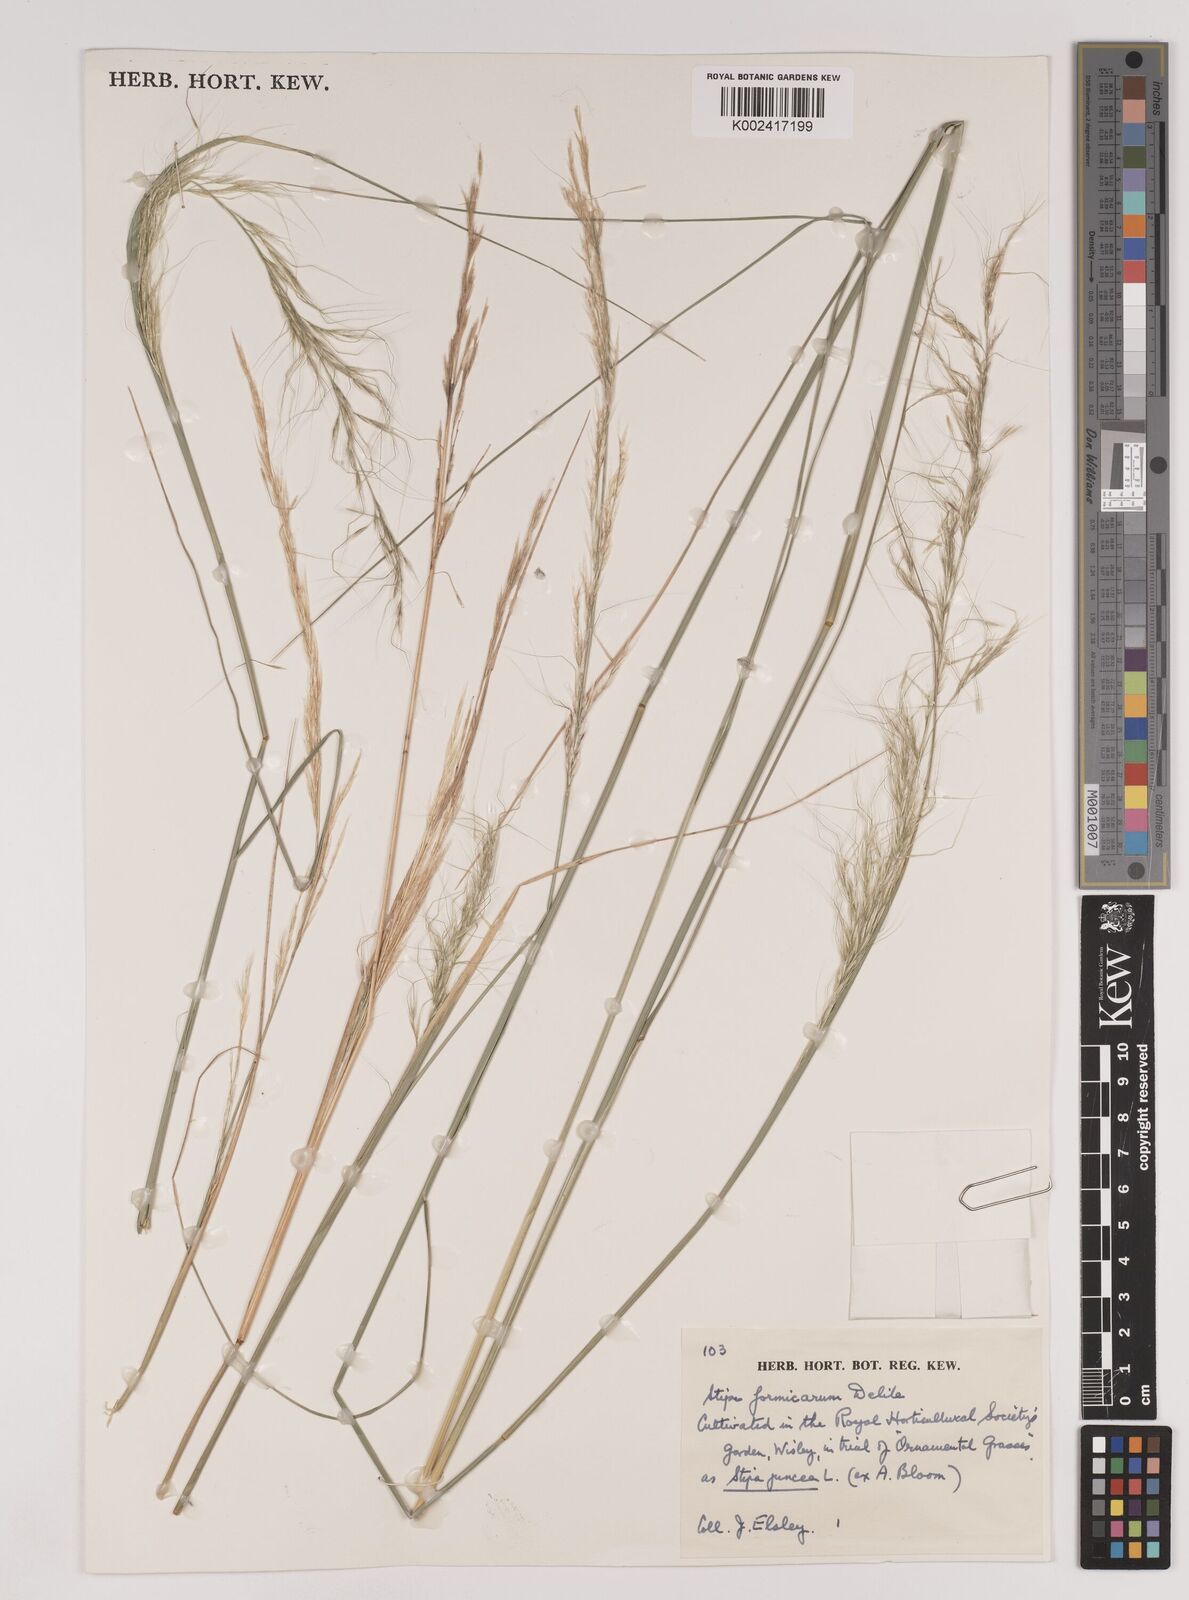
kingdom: Plantae
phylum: Tracheophyta
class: Liliopsida
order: Poales
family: Poaceae
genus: Nassella
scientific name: Nassella formicarum
